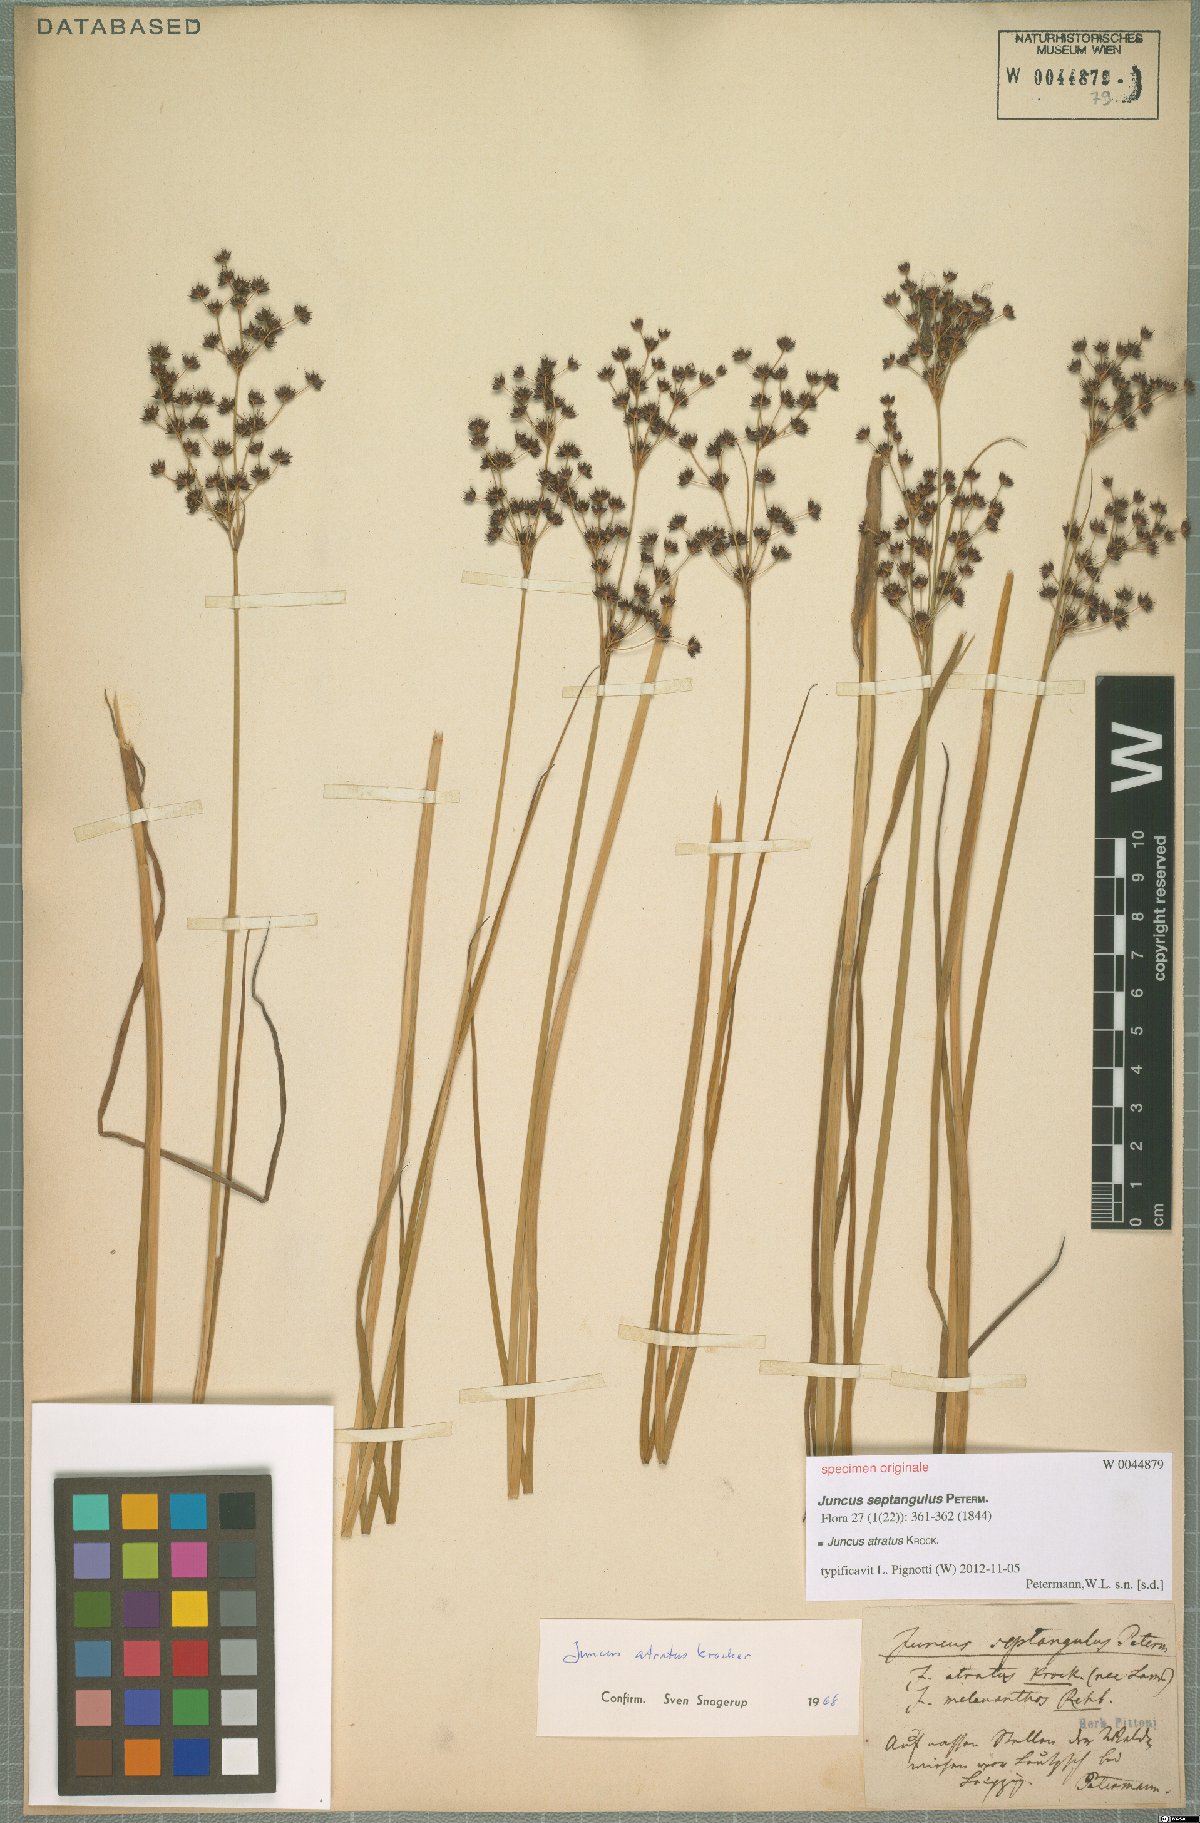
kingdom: Plantae
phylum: Tracheophyta
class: Liliopsida
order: Poales
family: Juncaceae
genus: Juncus
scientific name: Juncus atratus
